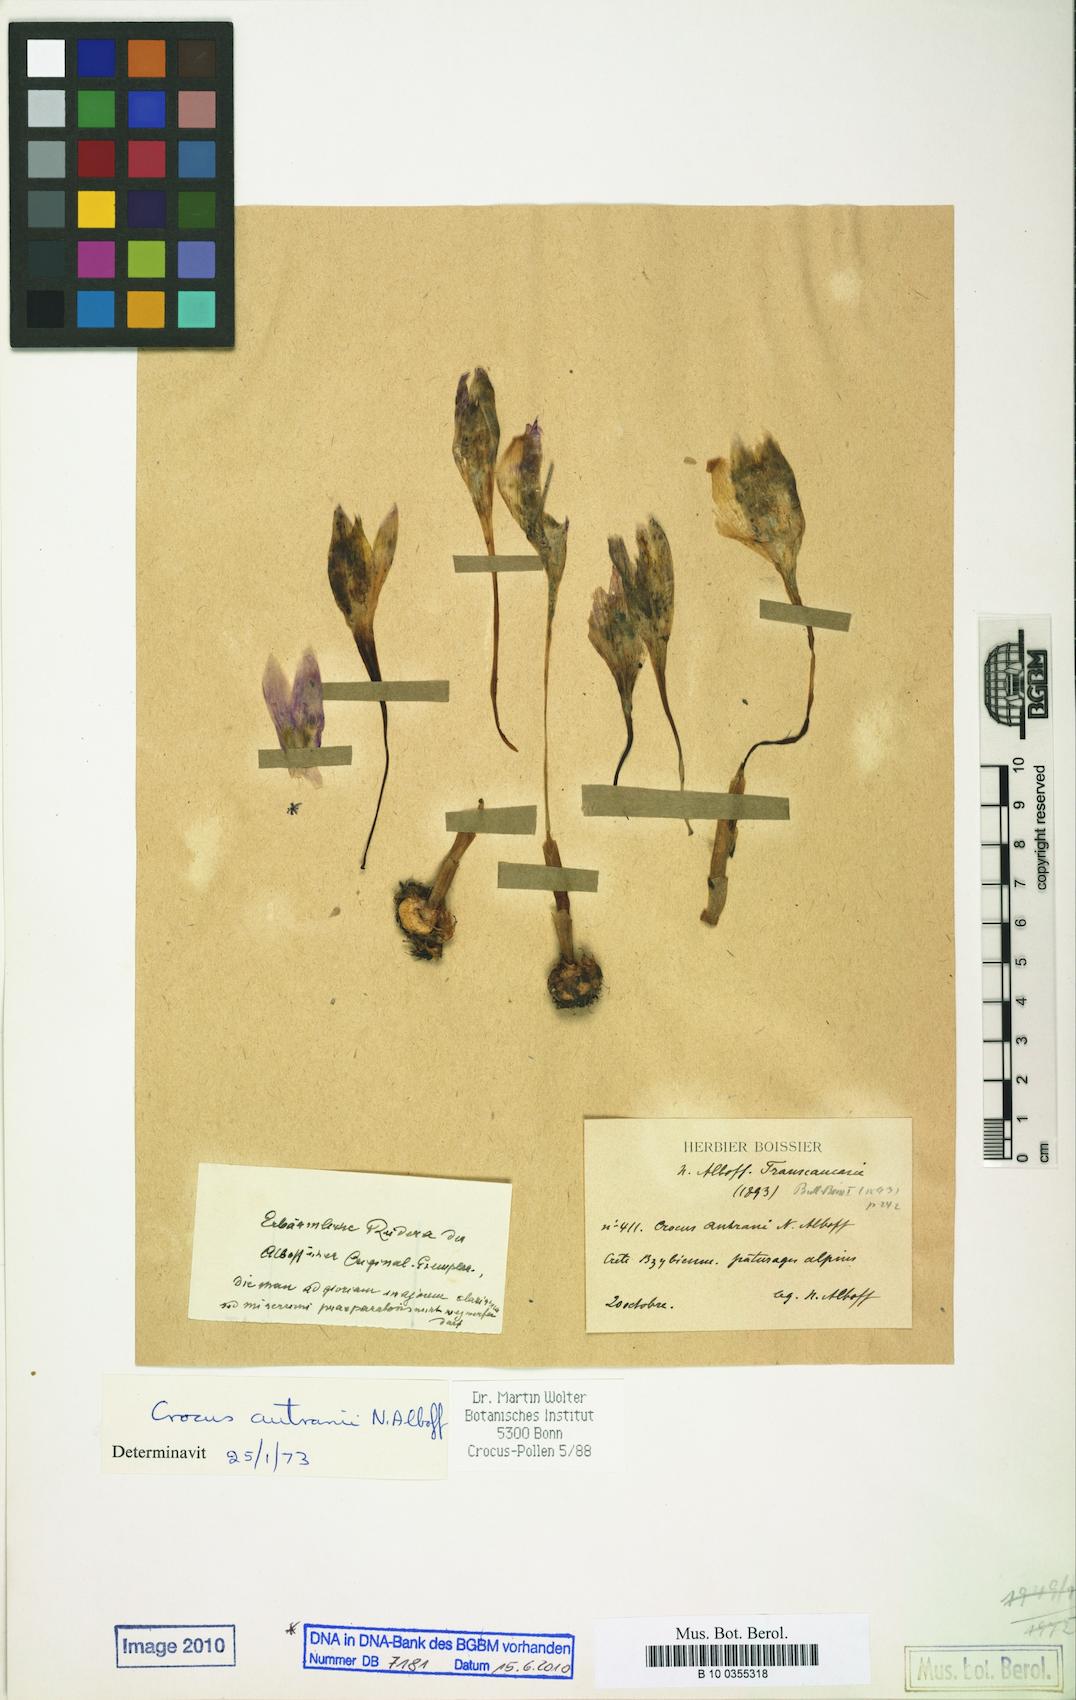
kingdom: Plantae
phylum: Tracheophyta
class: Liliopsida
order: Asparagales
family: Iridaceae
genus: Crocus
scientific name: Crocus autranii
